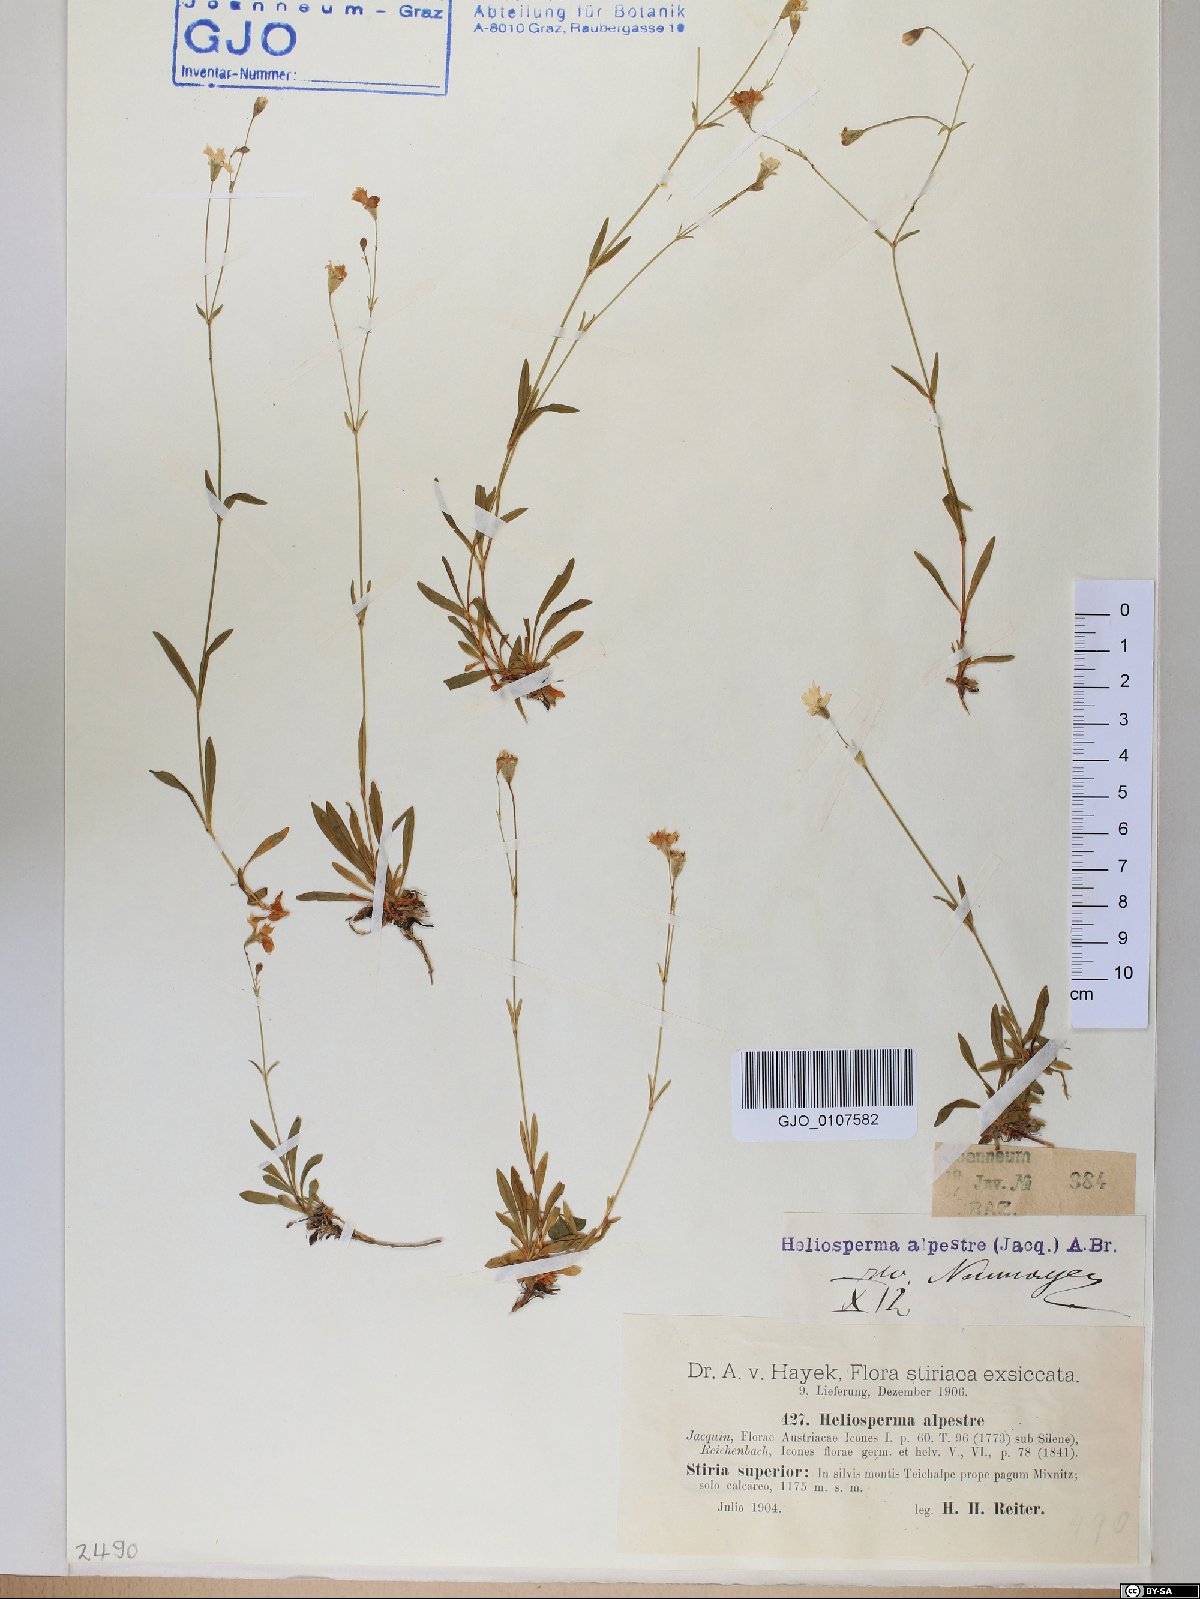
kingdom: Plantae
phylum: Tracheophyta
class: Magnoliopsida
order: Caryophyllales
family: Caryophyllaceae
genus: Heliosperma
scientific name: Heliosperma alpestre
